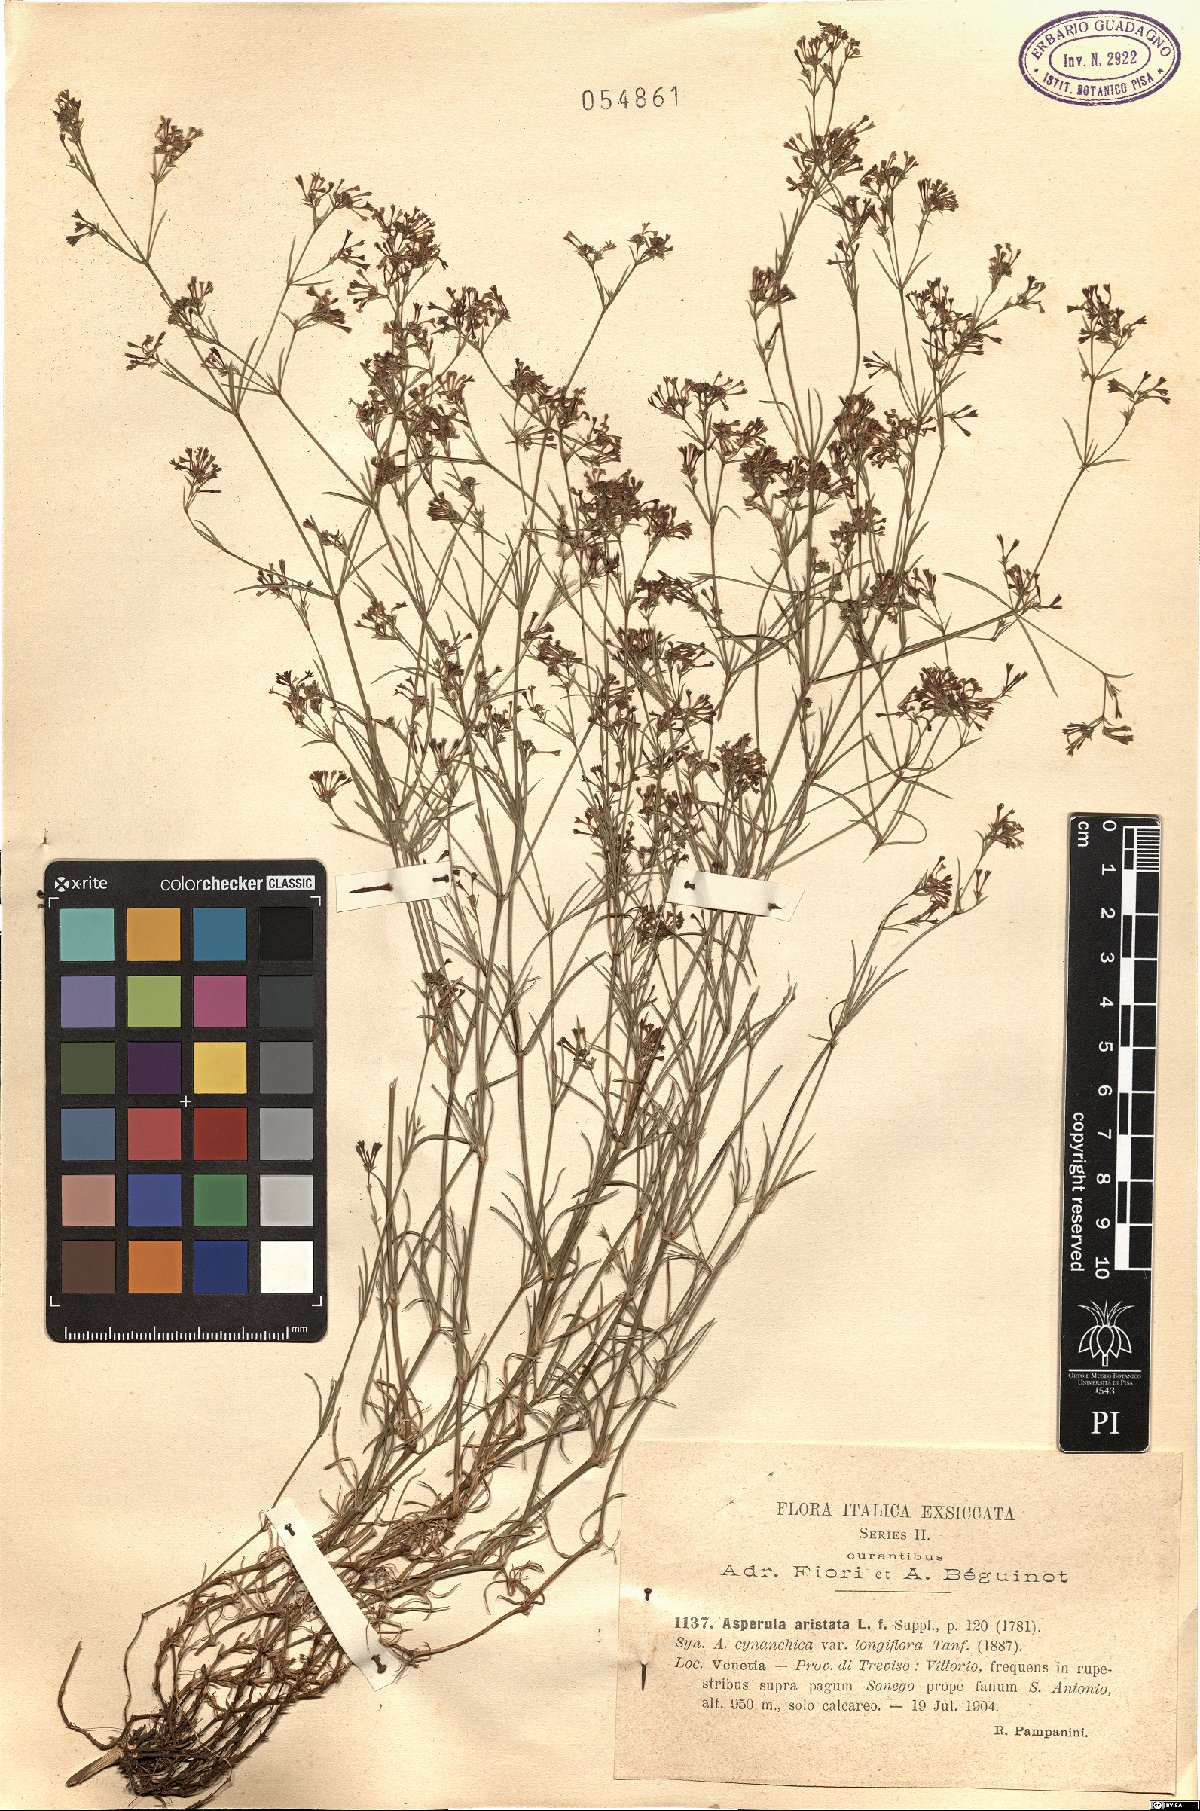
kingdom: Plantae
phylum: Tracheophyta
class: Magnoliopsida
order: Gentianales
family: Rubiaceae
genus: Cynanchica
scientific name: Cynanchica aristata
